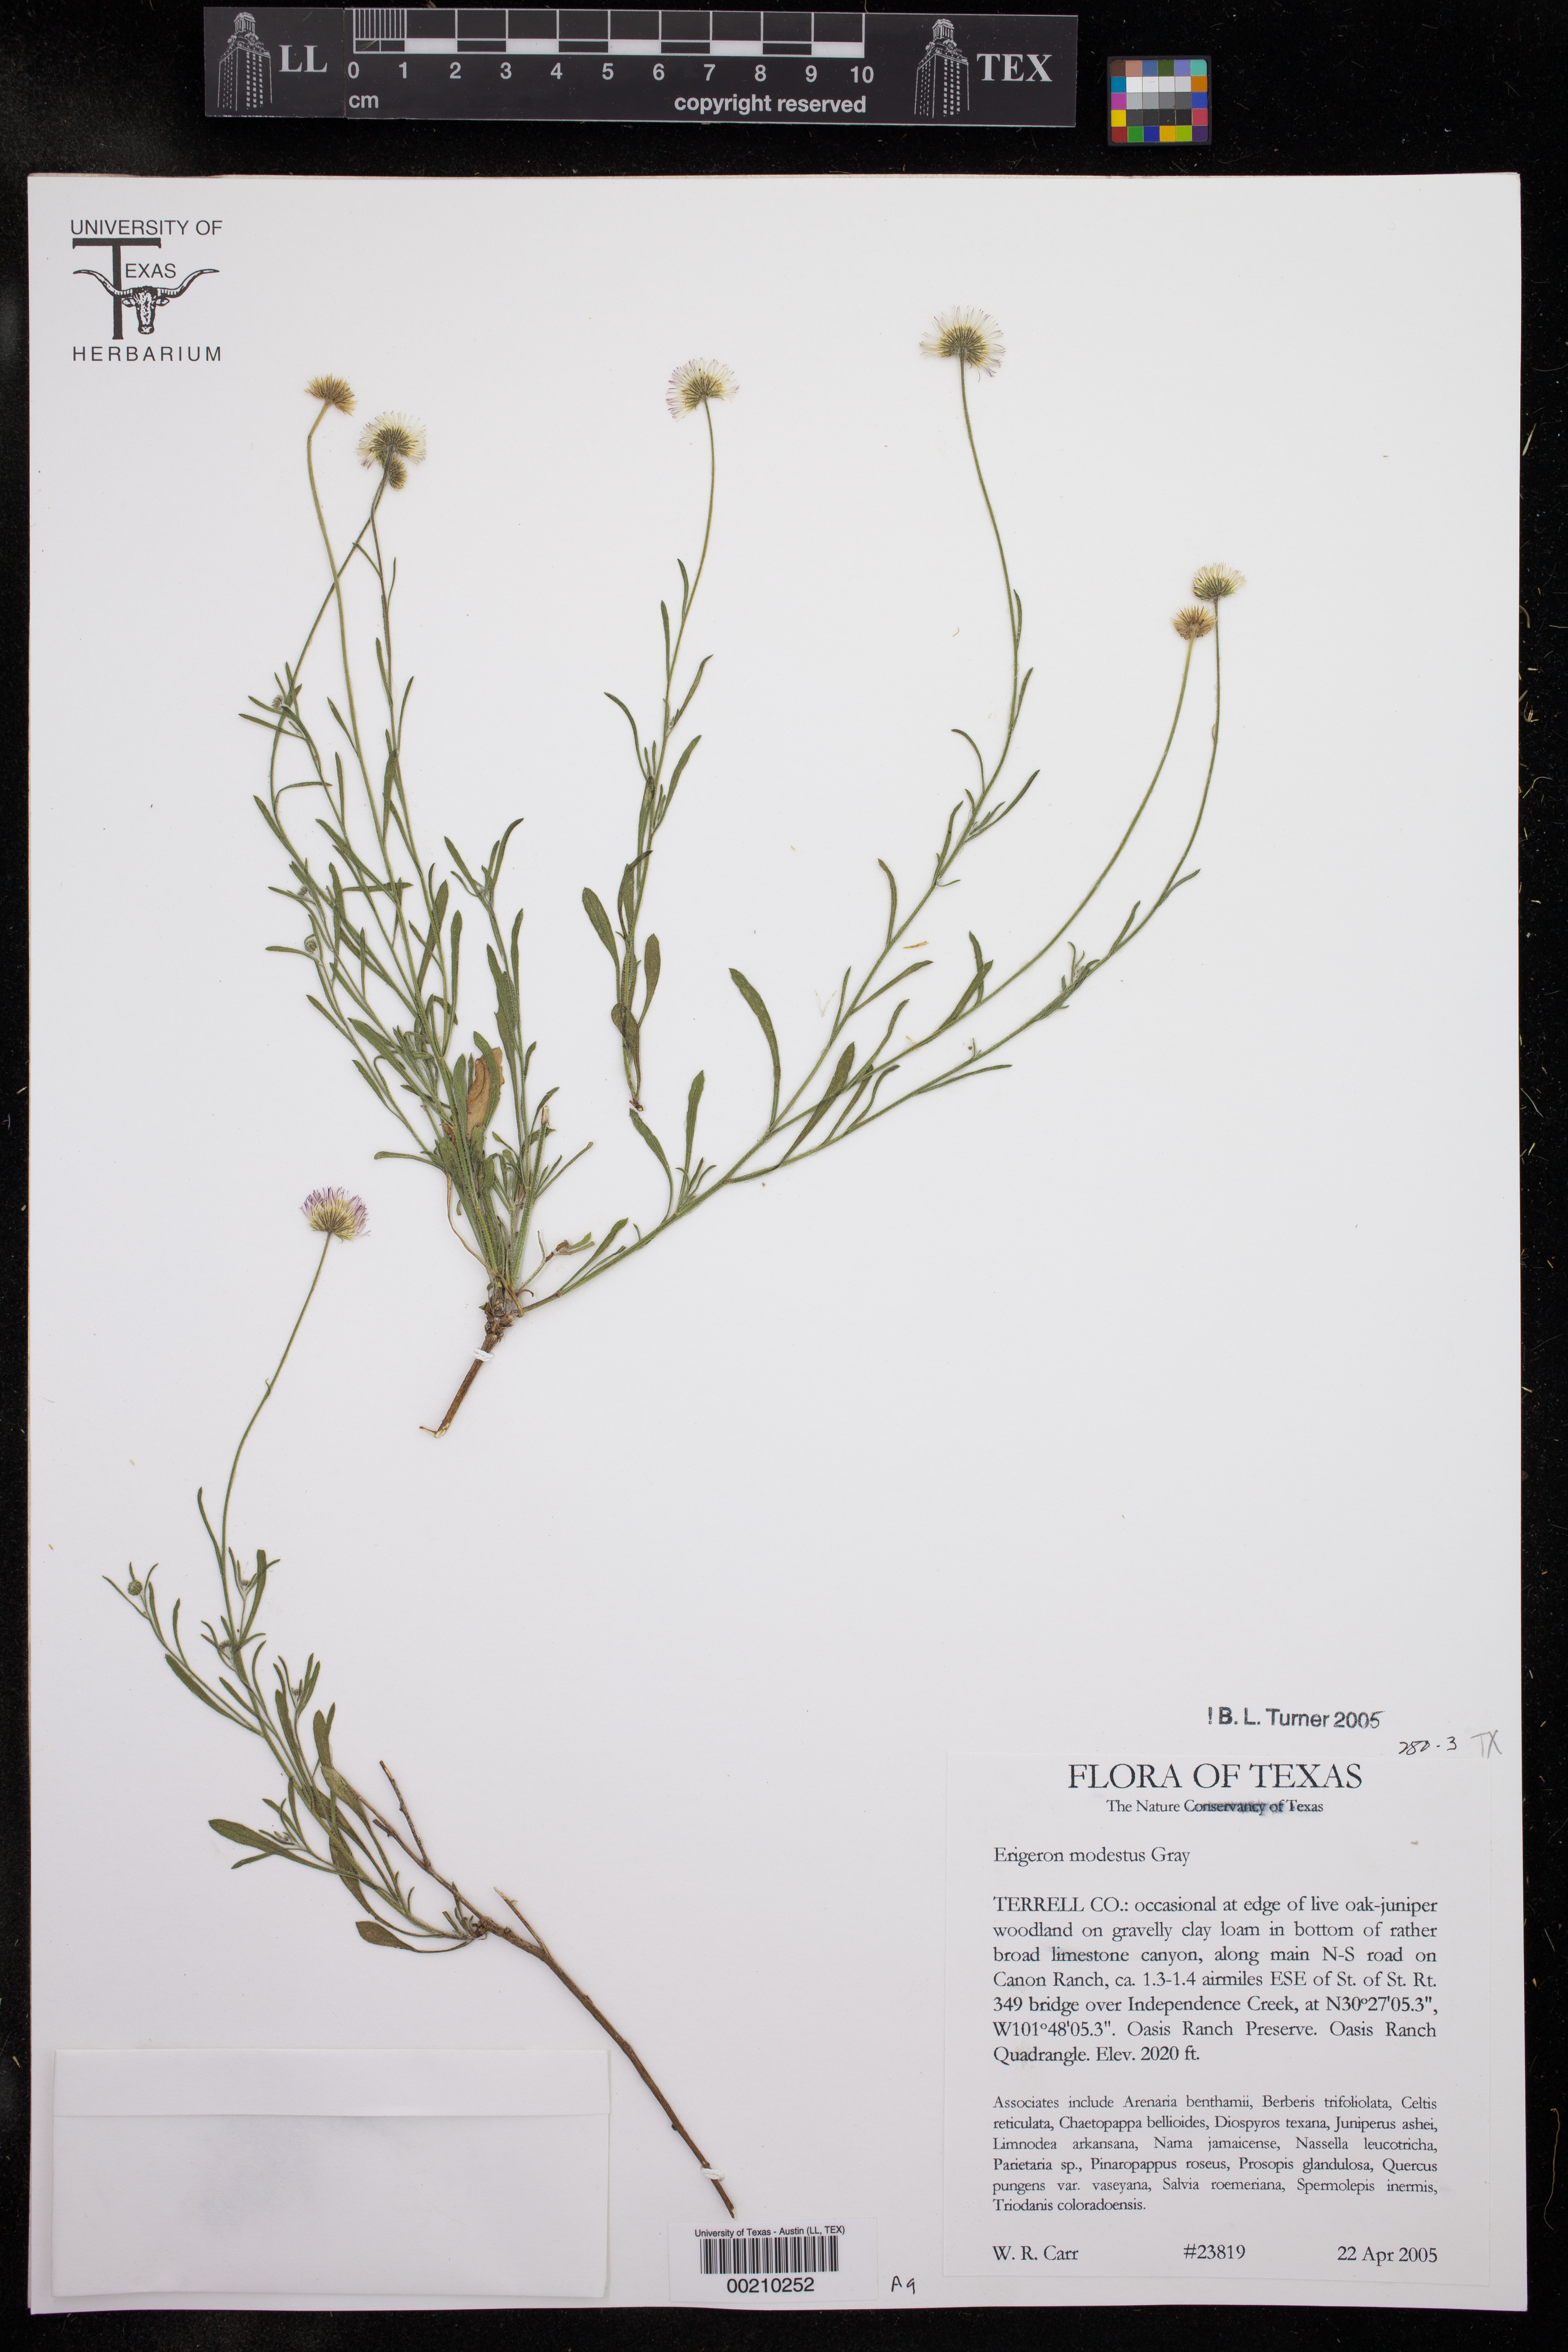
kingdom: Plantae
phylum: Tracheophyta
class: Magnoliopsida
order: Asterales
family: Asteraceae
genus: Erigeron
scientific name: Erigeron modestus
